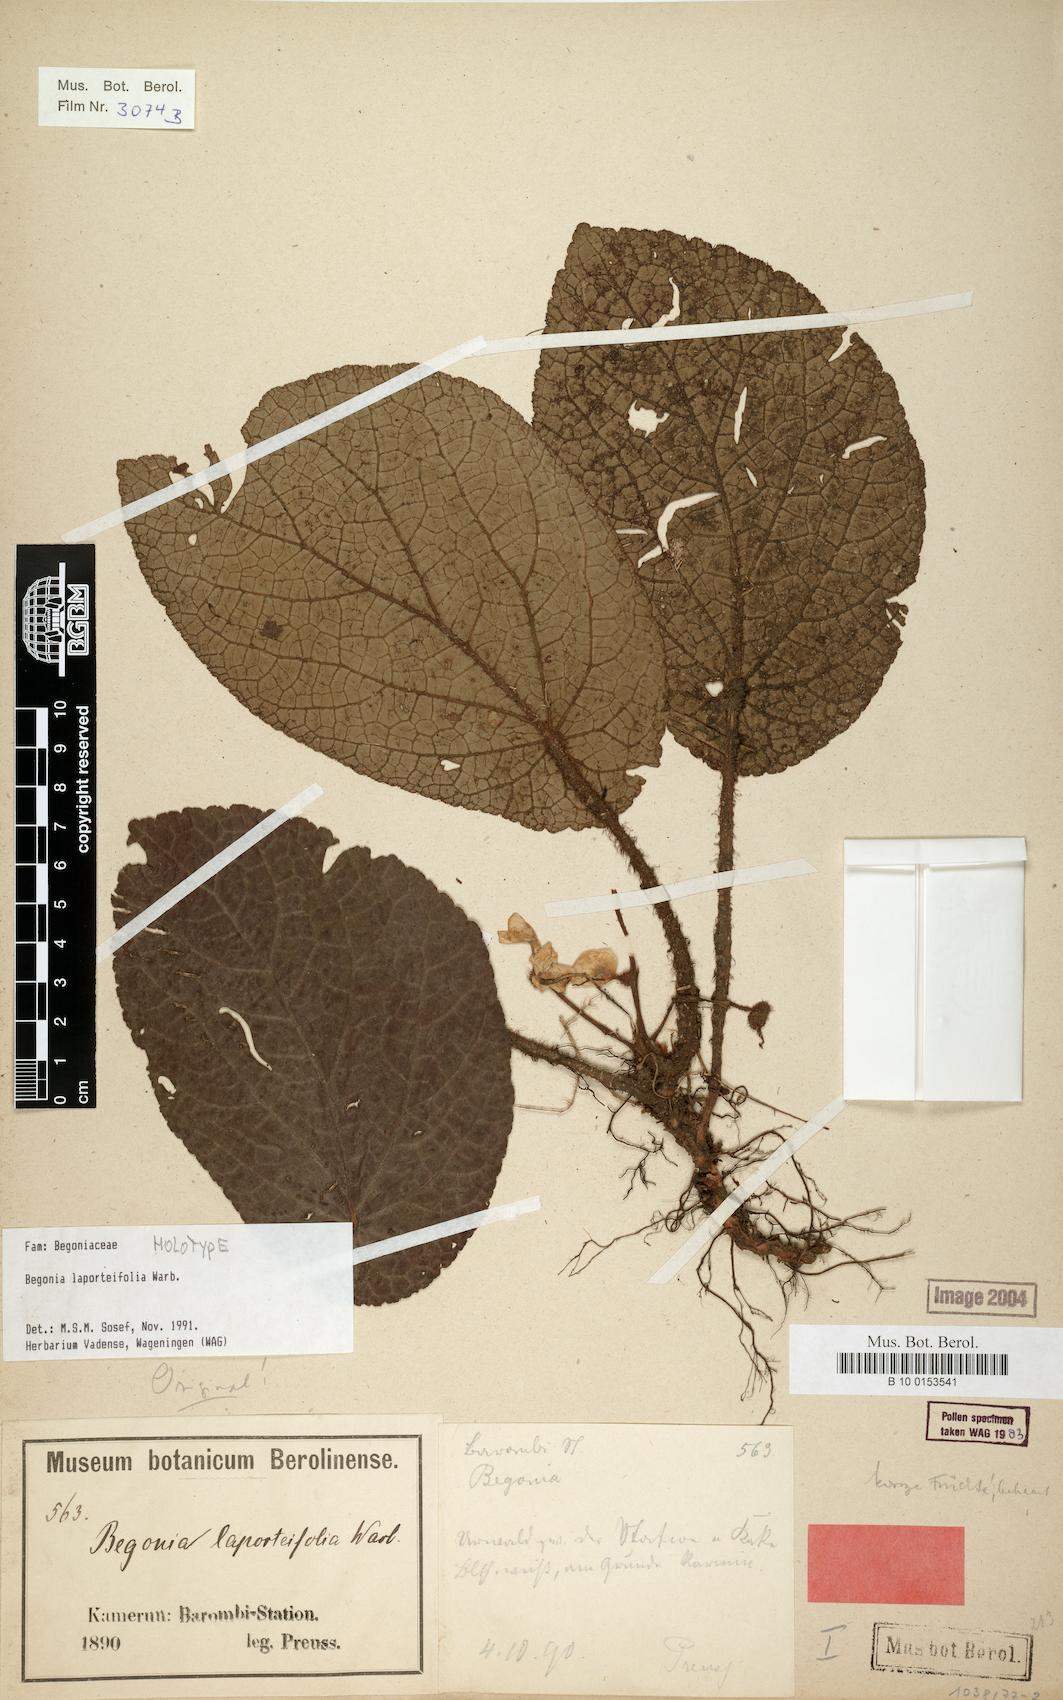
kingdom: Plantae
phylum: Tracheophyta
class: Magnoliopsida
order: Cucurbitales
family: Begoniaceae
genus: Begonia
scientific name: Begonia laporteifolia
